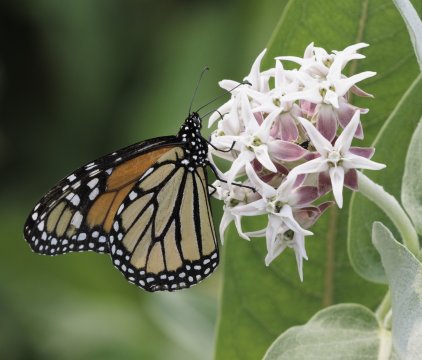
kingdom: Animalia
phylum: Arthropoda
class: Insecta
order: Lepidoptera
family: Nymphalidae
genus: Danaus
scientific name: Danaus plexippus
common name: Monarch
